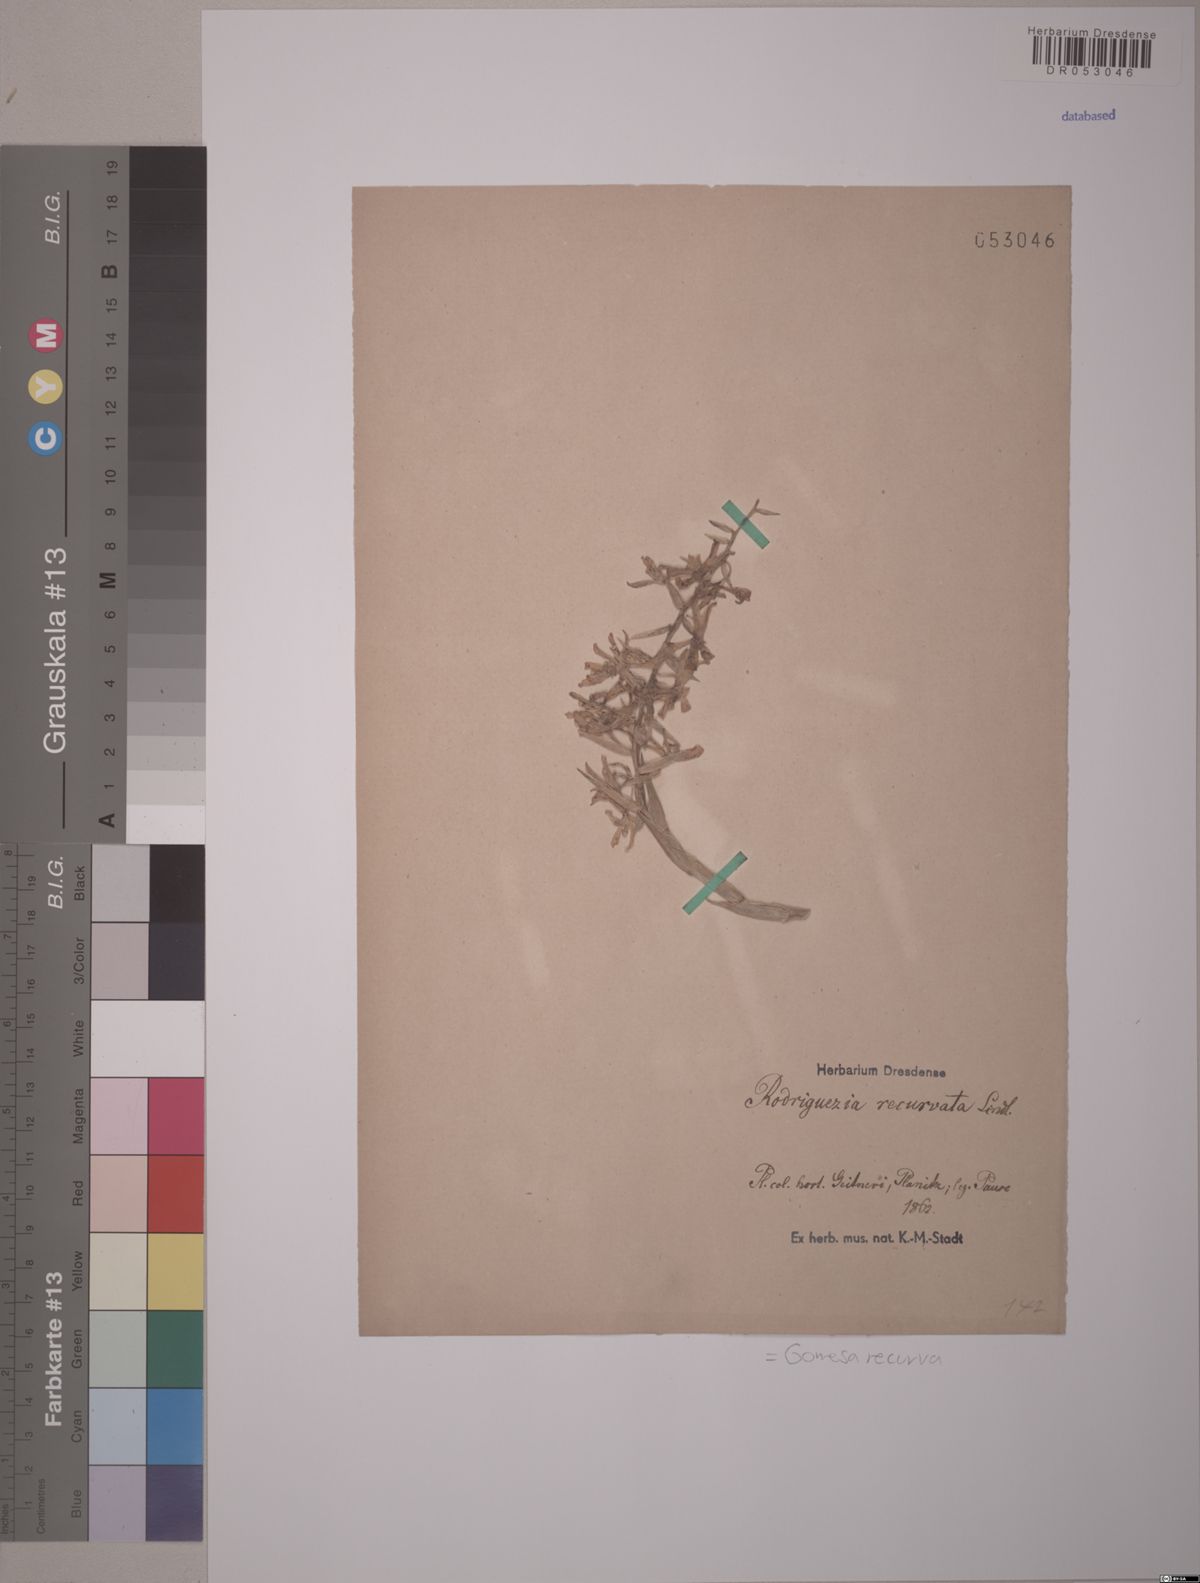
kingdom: Plantae
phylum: Tracheophyta
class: Liliopsida
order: Asparagales
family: Orchidaceae
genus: Gomesa
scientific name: Gomesa recurva
